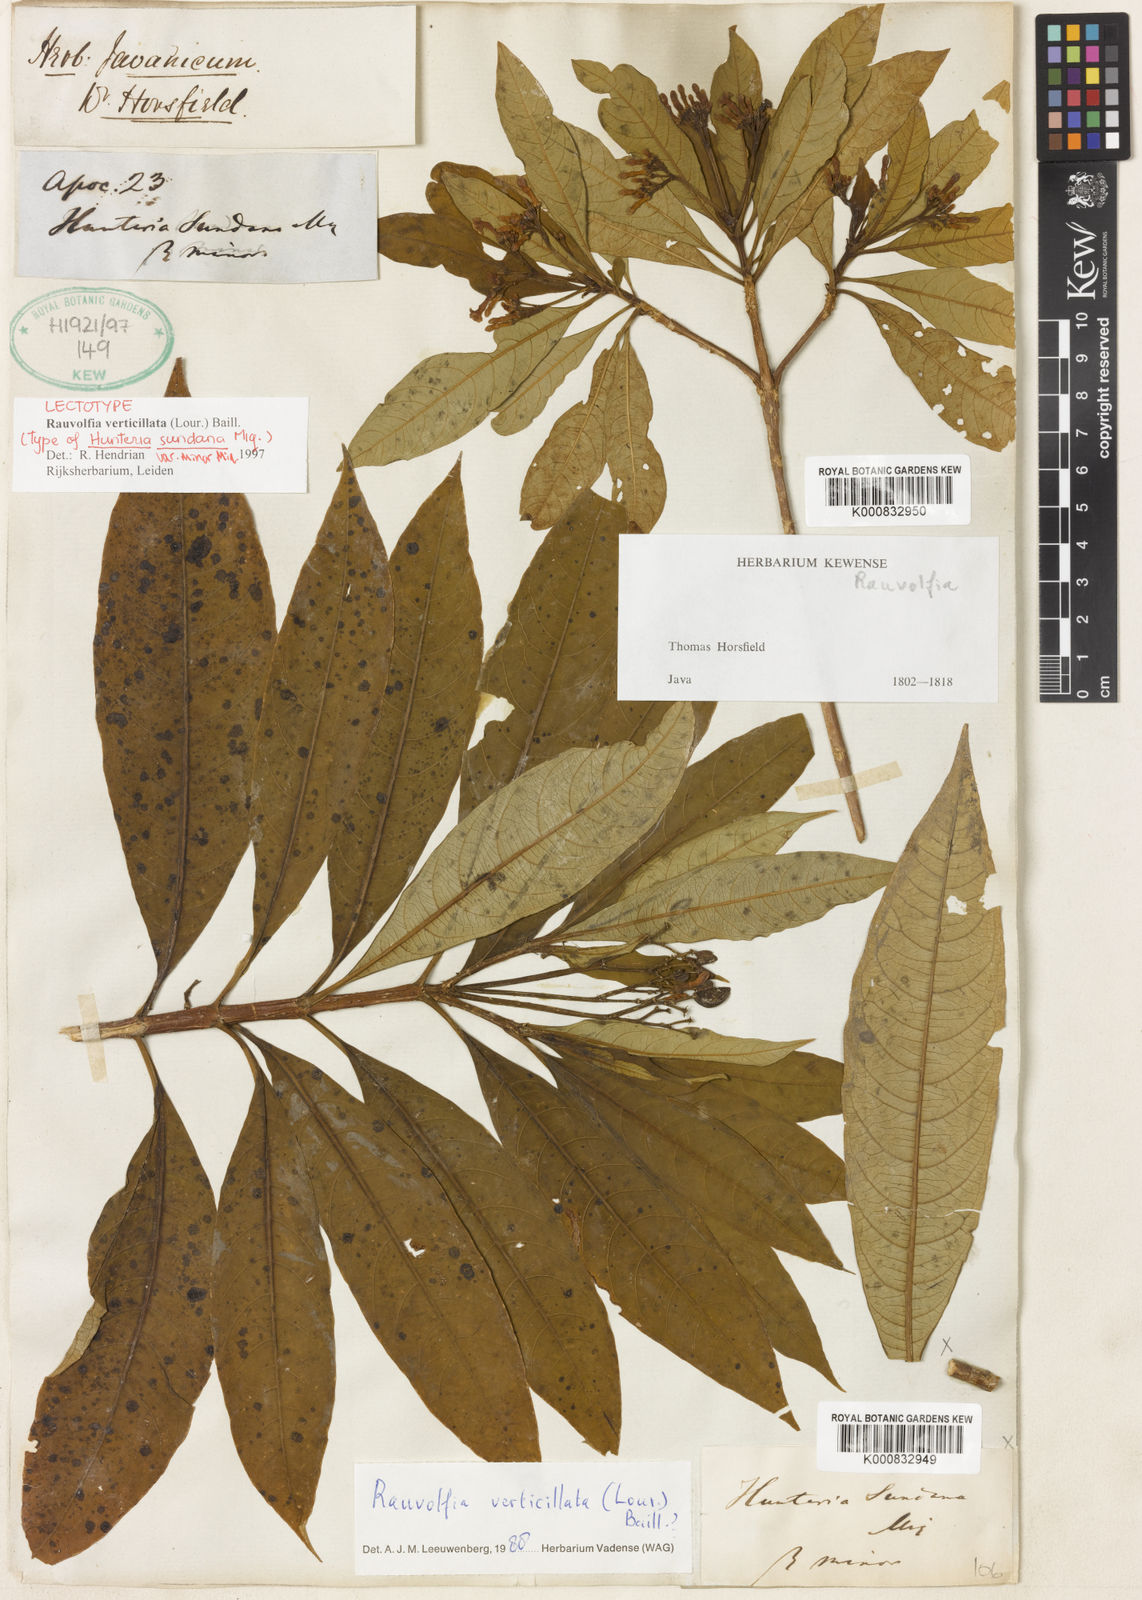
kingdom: Plantae
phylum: Tracheophyta
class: Magnoliopsida
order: Gentianales
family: Apocynaceae
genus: Rauvolfia
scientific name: Rauvolfia verticillata
